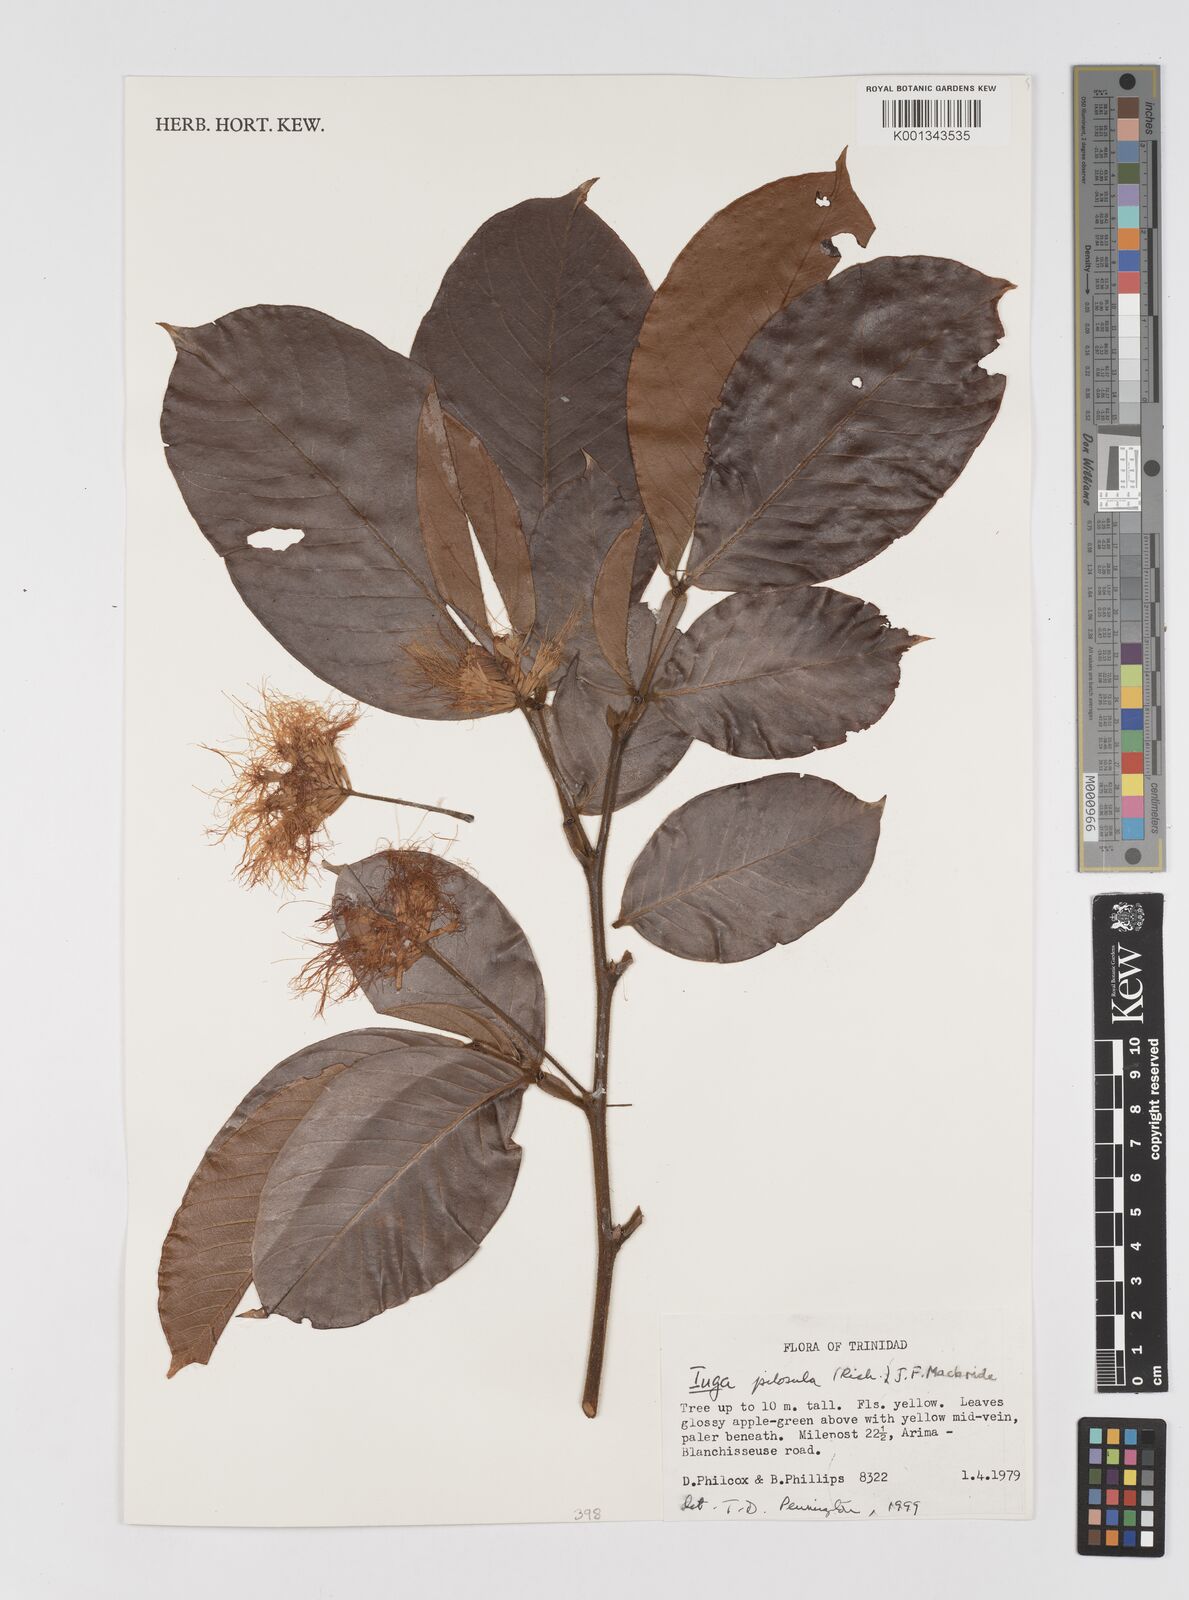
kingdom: Plantae
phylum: Tracheophyta
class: Magnoliopsida
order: Fabales
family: Fabaceae
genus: Inga
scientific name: Inga pilosula
